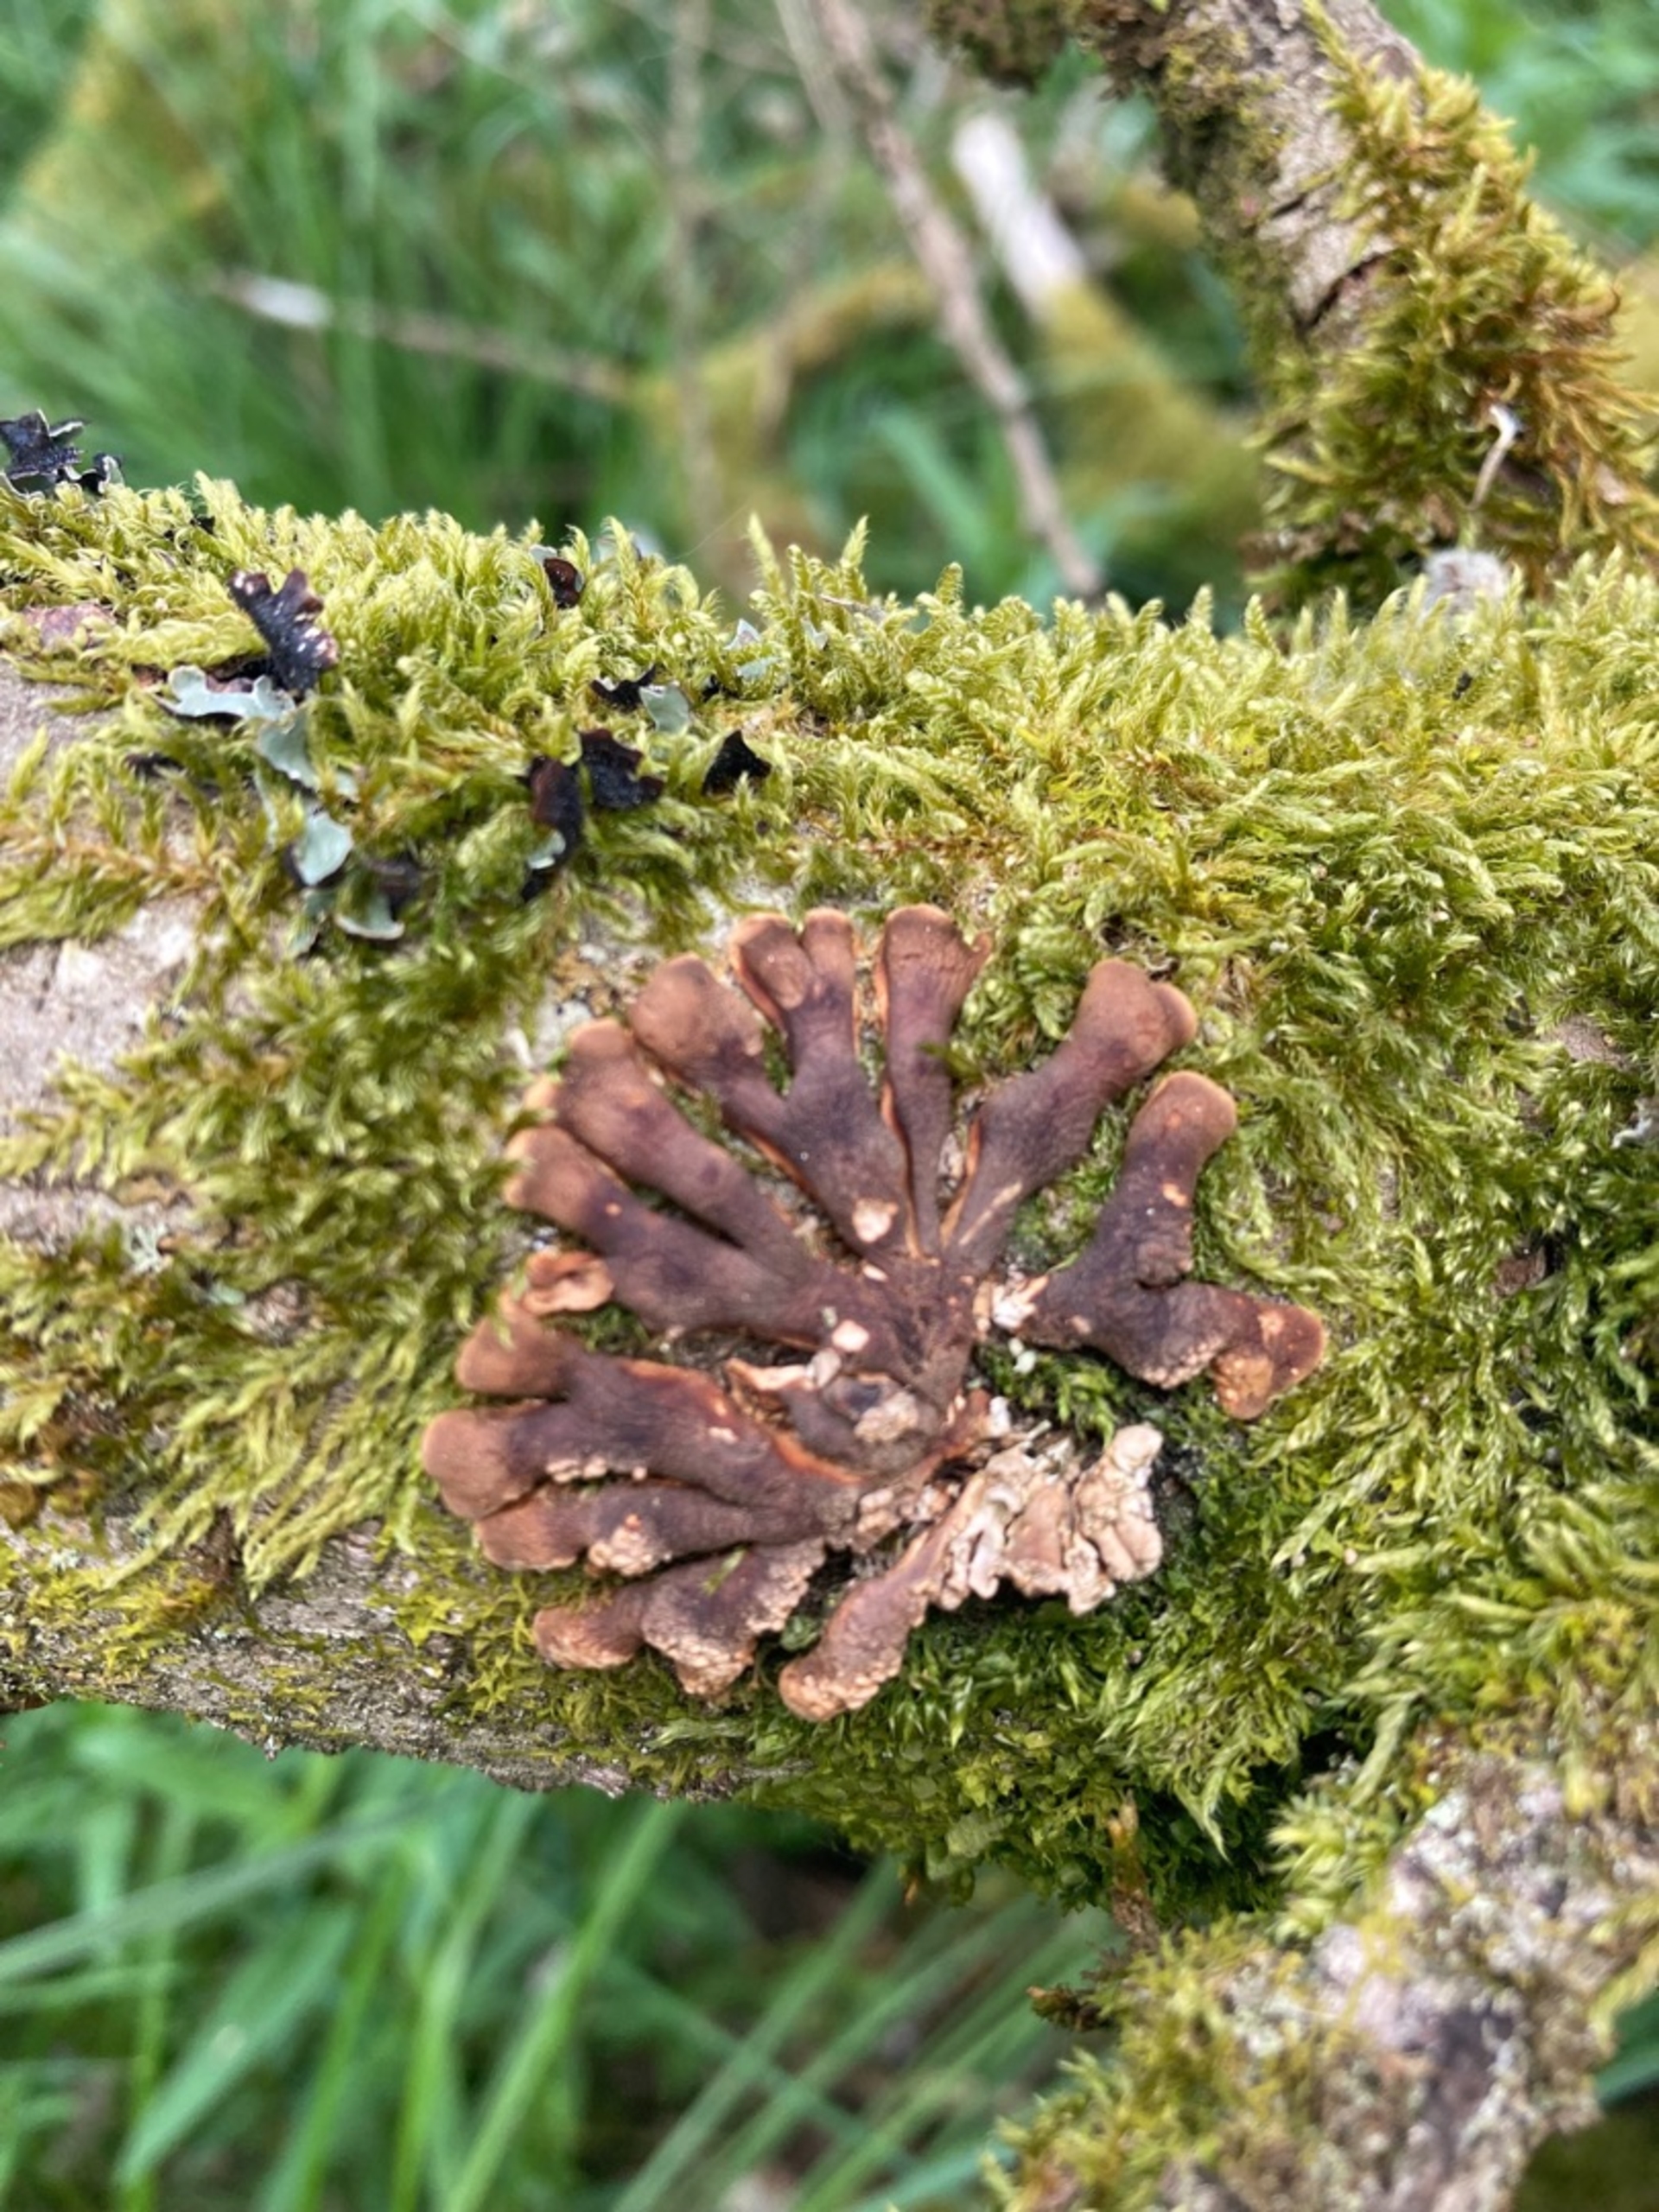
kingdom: Fungi
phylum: Ascomycota
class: Sordariomycetes
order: Hypocreales
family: Hypocreaceae
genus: Hypocreopsis
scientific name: Hypocreopsis lichenoides
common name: Pilfinger
